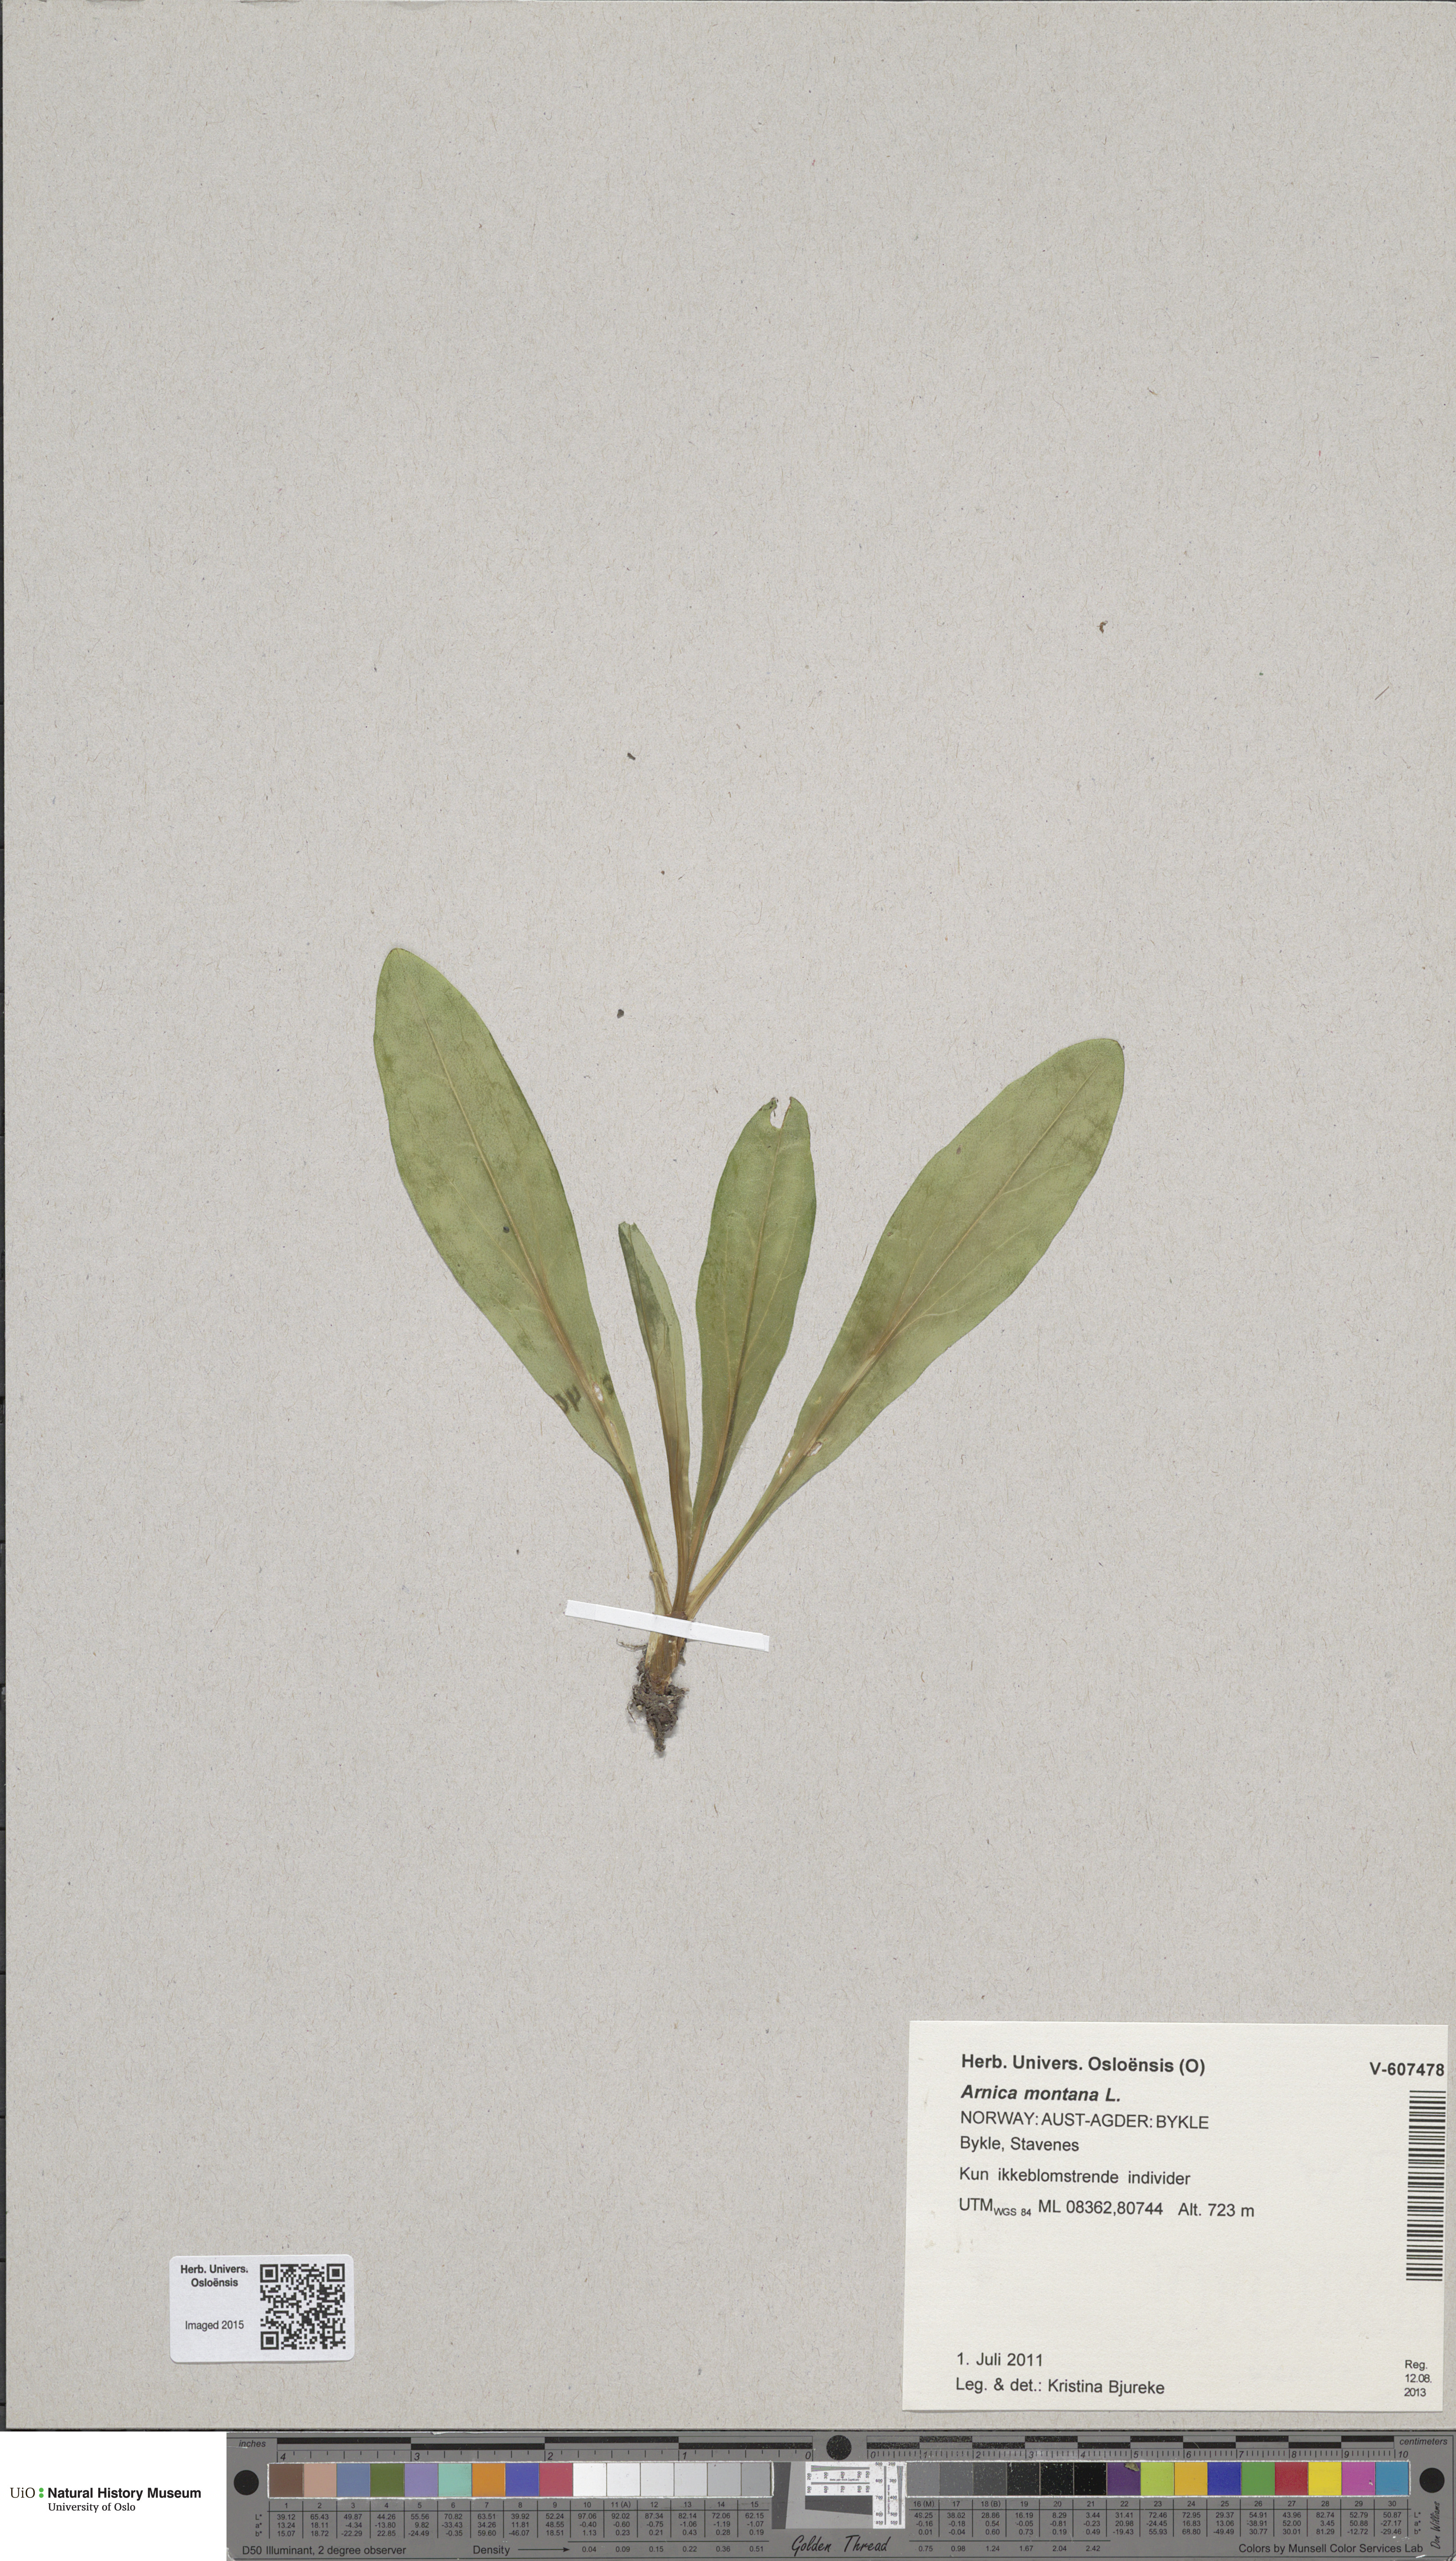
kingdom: Plantae
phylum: Tracheophyta
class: Magnoliopsida
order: Asterales
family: Asteraceae
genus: Arnica
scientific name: Arnica montana
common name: Leopard's bane
